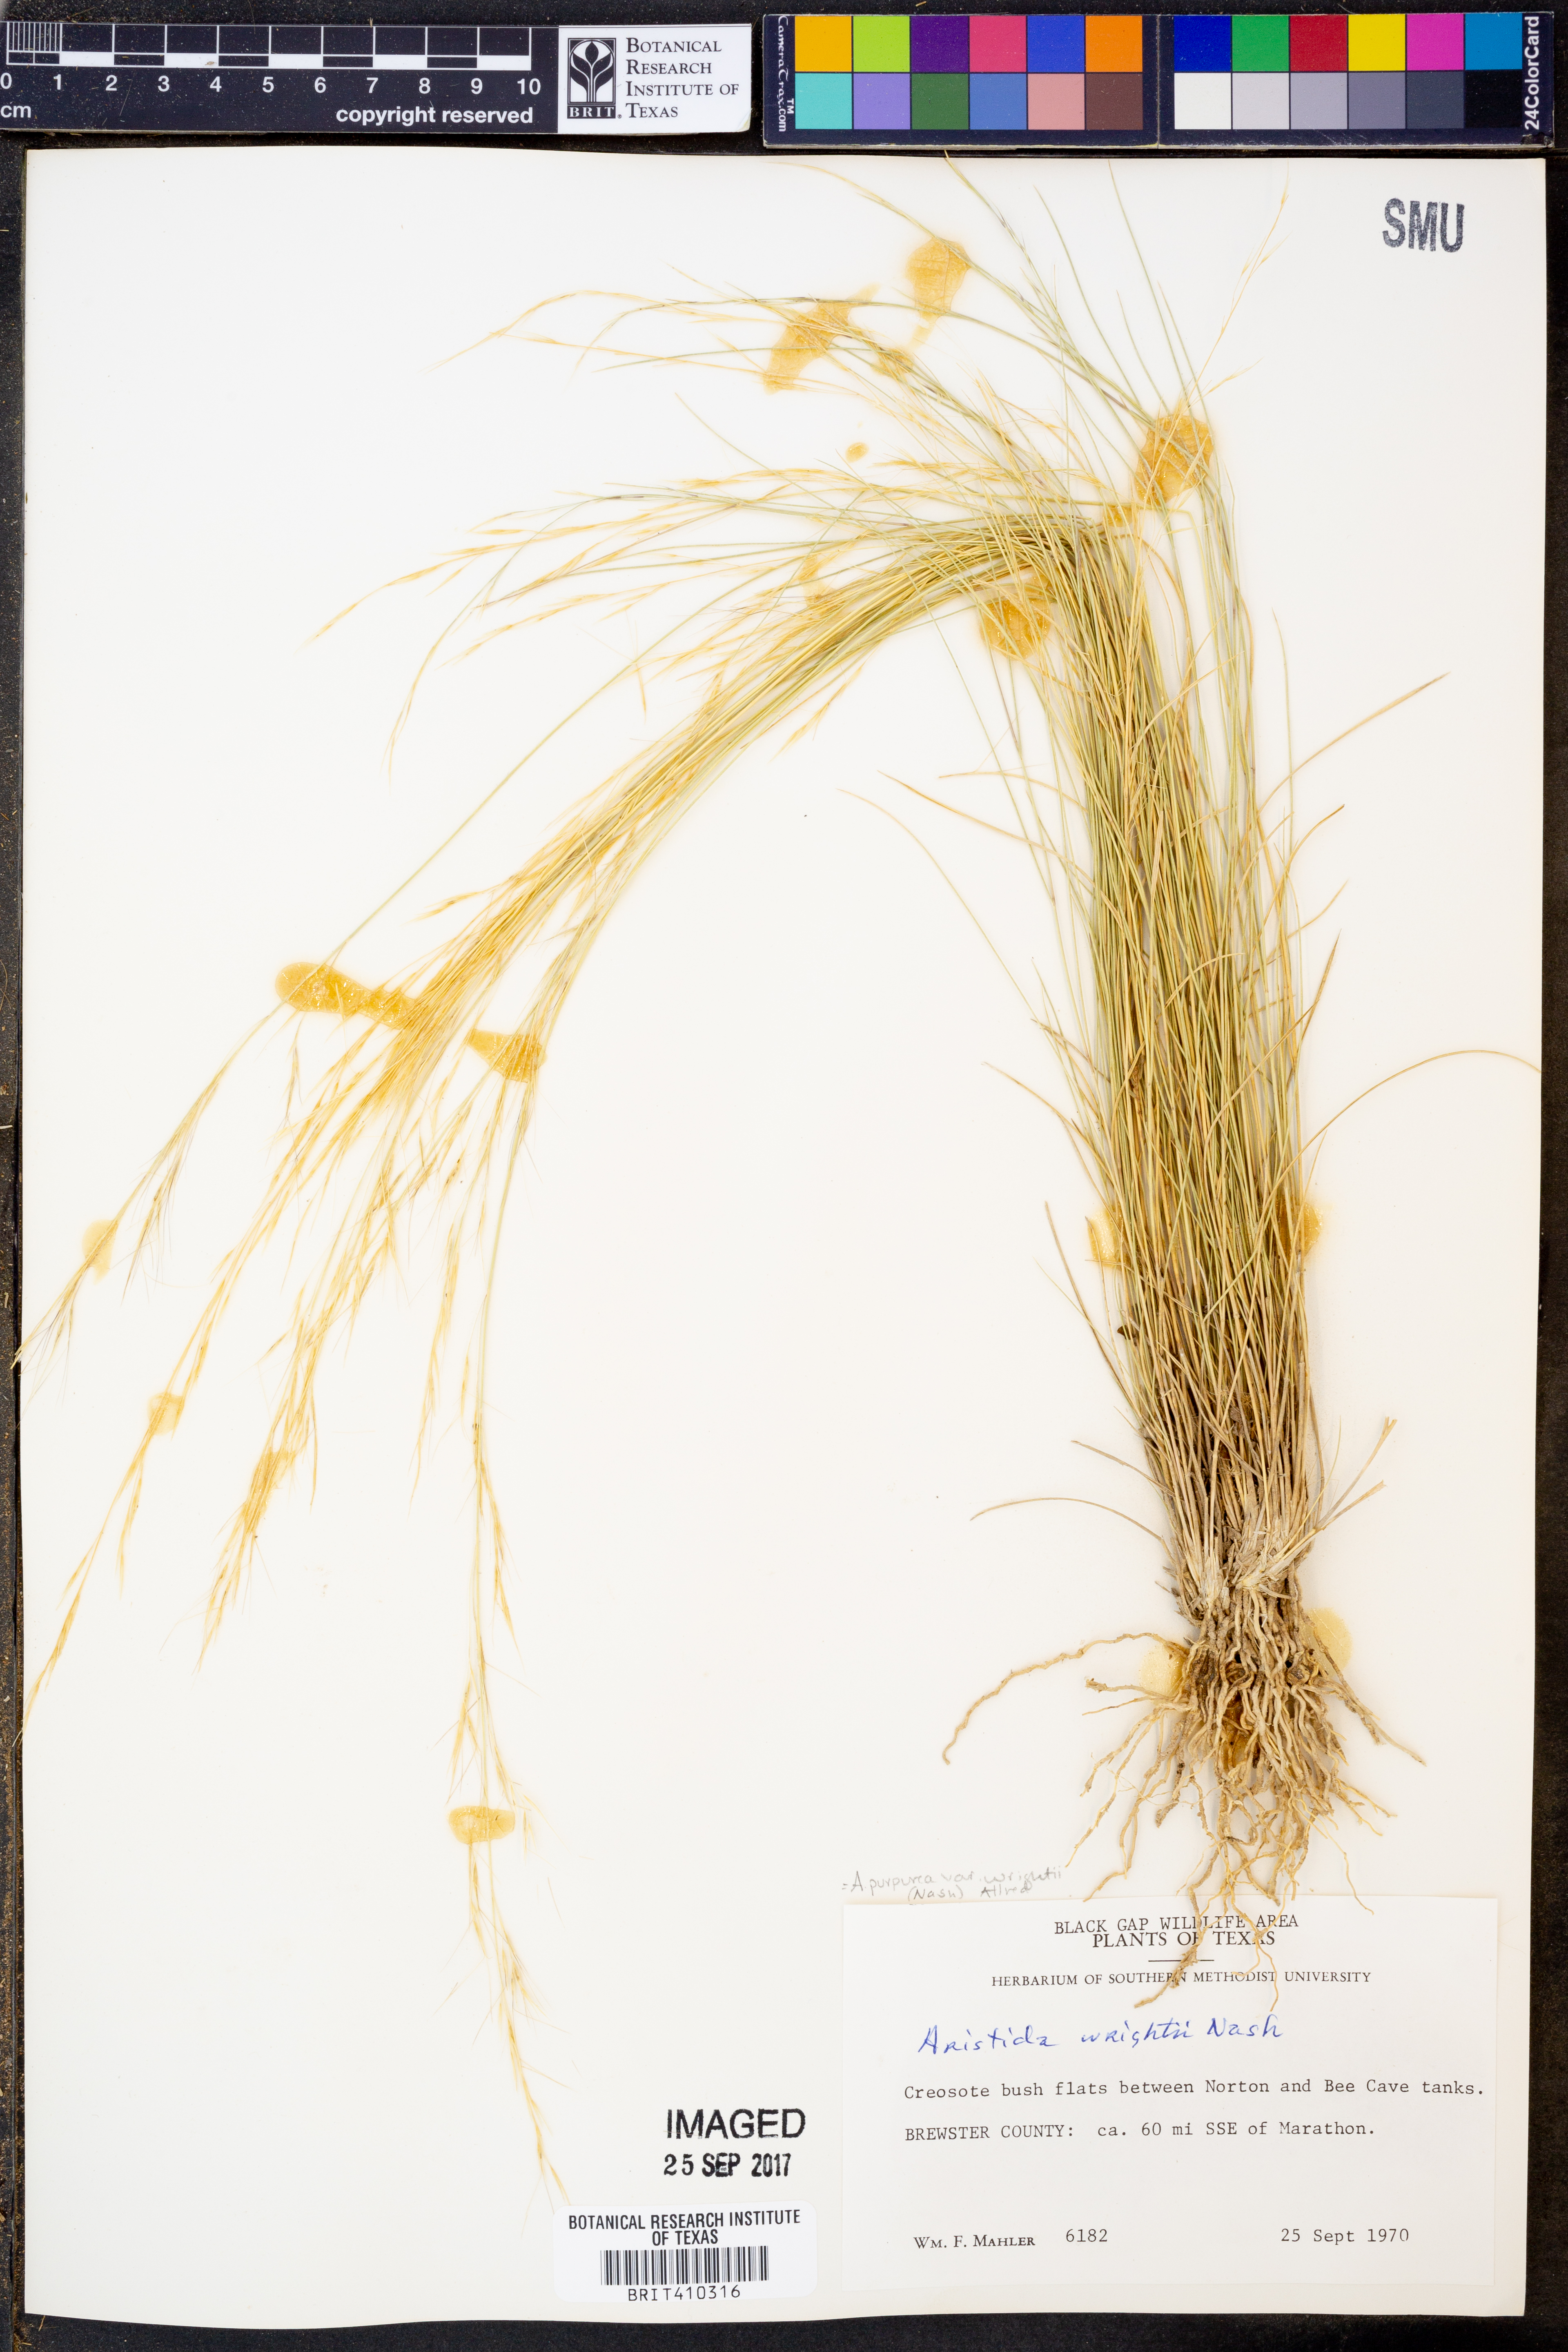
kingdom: Plantae
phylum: Tracheophyta
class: Liliopsida
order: Poales
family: Poaceae
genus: Aristida
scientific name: Aristida wrightii
